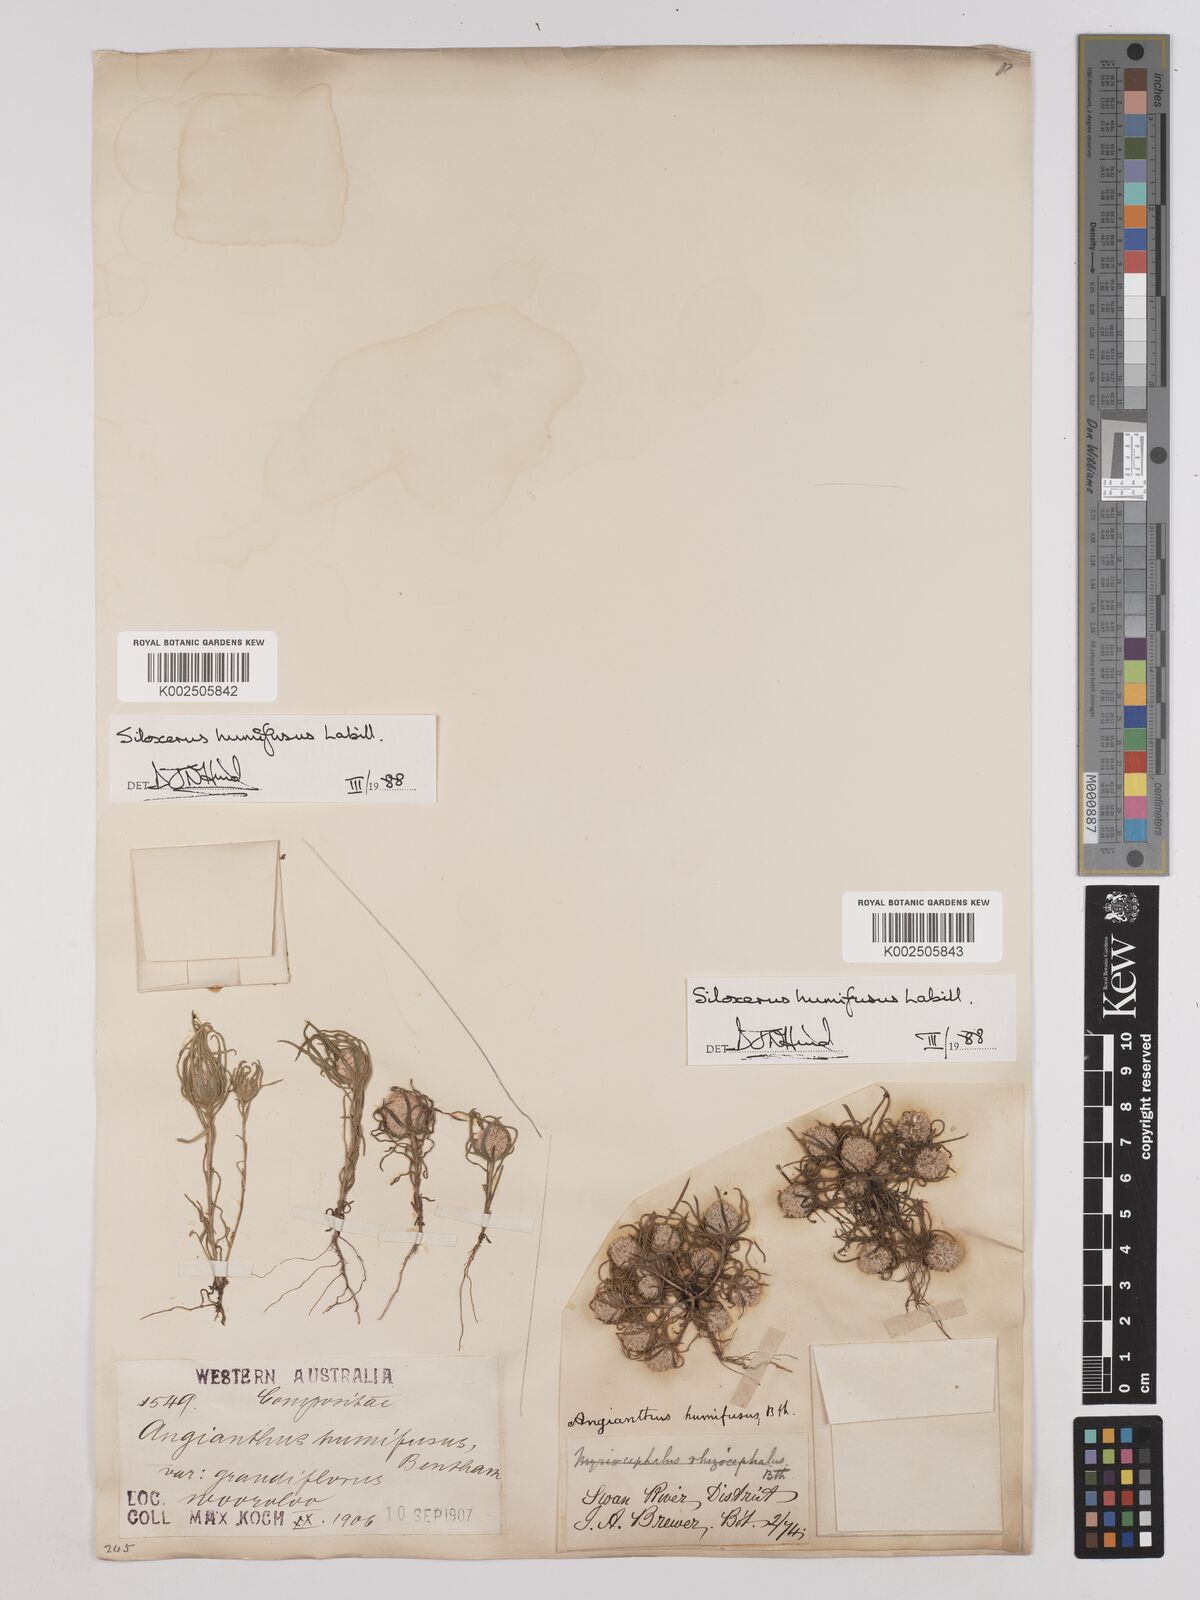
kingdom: Plantae
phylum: Tracheophyta
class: Magnoliopsida
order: Asterales
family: Asteraceae
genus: Siloxerus
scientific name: Siloxerus humifusus
